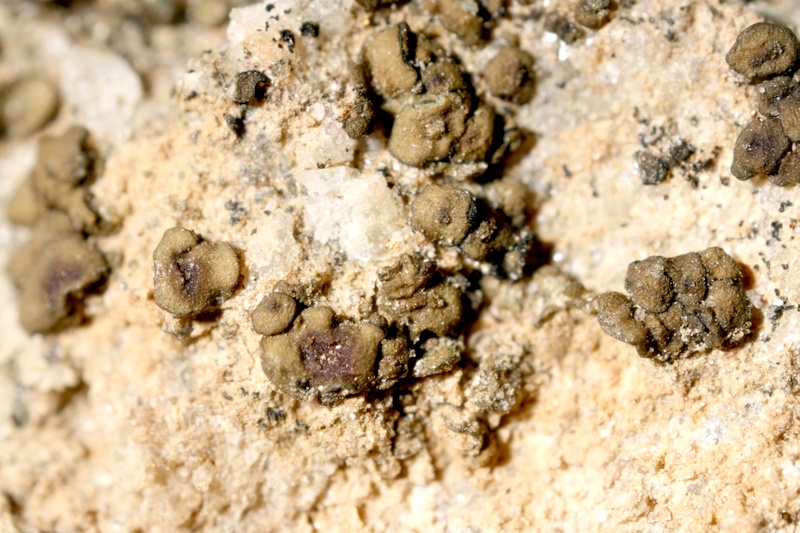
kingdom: Fungi
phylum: Ascomycota
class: Lichinomycetes
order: Lichinales
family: Peltulaceae
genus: Peltula
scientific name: Peltula obscurans
